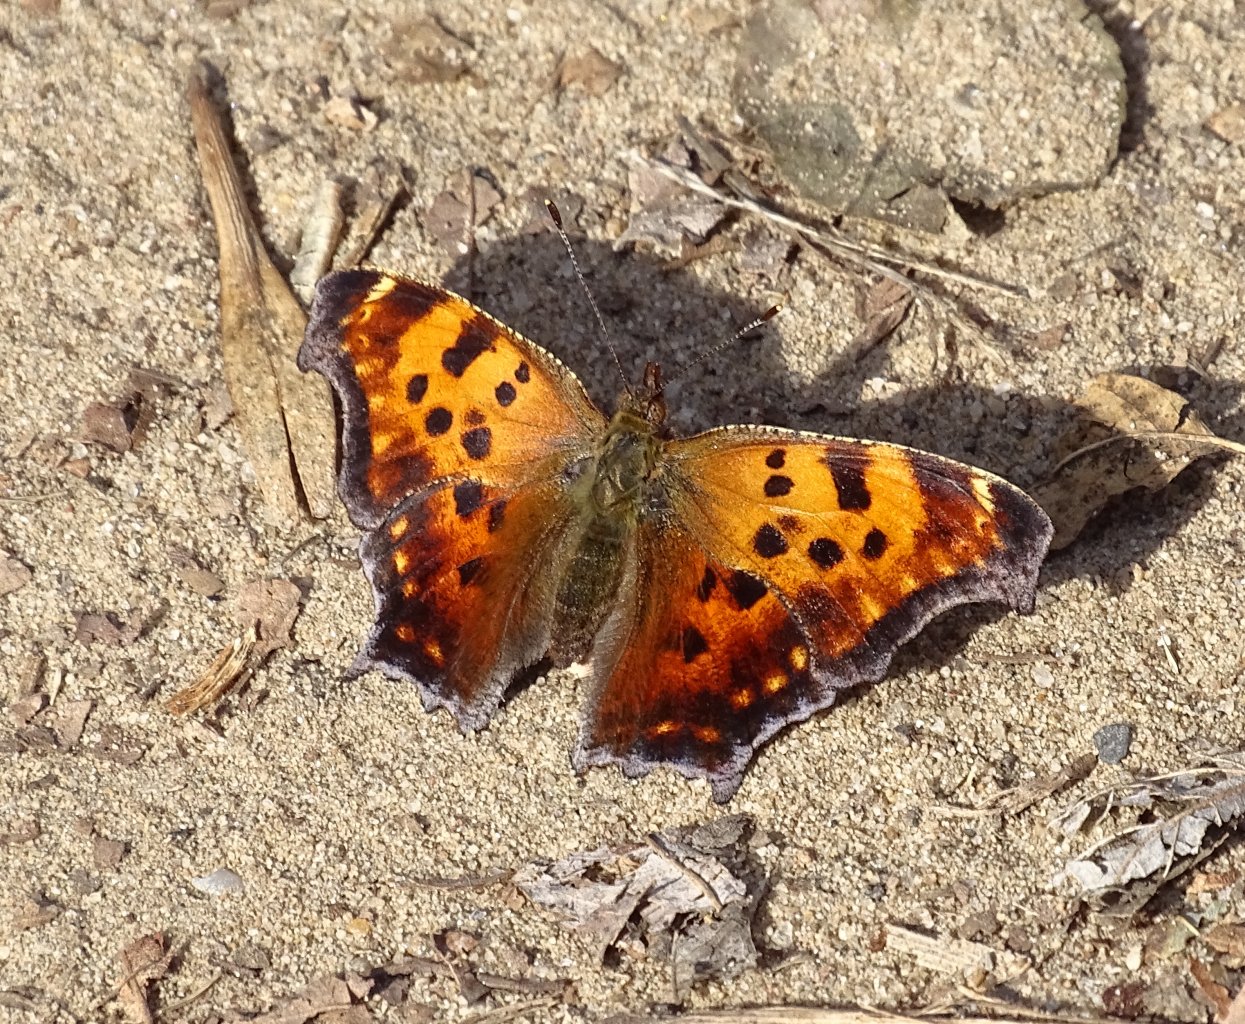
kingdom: Animalia
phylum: Arthropoda
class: Insecta
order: Lepidoptera
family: Nymphalidae
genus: Polygonia
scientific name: Polygonia comma
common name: Eastern Comma
